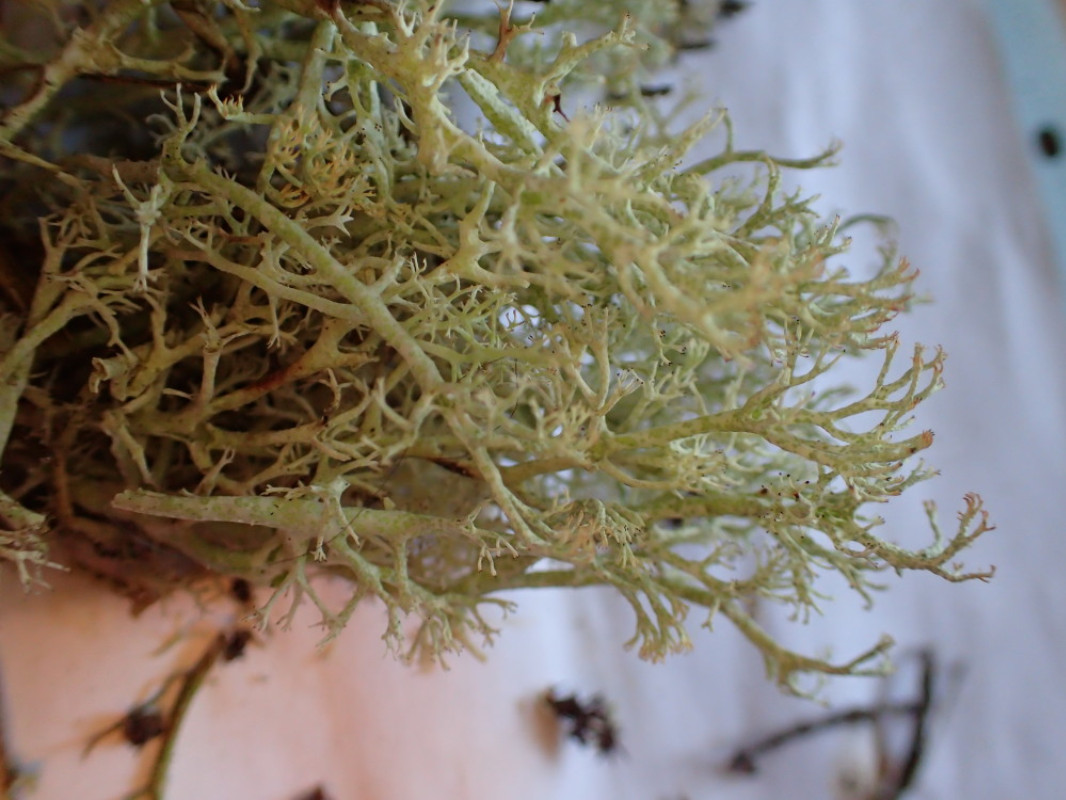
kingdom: Fungi
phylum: Ascomycota
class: Lecanoromycetes
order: Lecanorales
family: Cladoniaceae
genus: Cladonia
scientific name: Cladonia arbuscula
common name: gulhvid rensdyrlav
